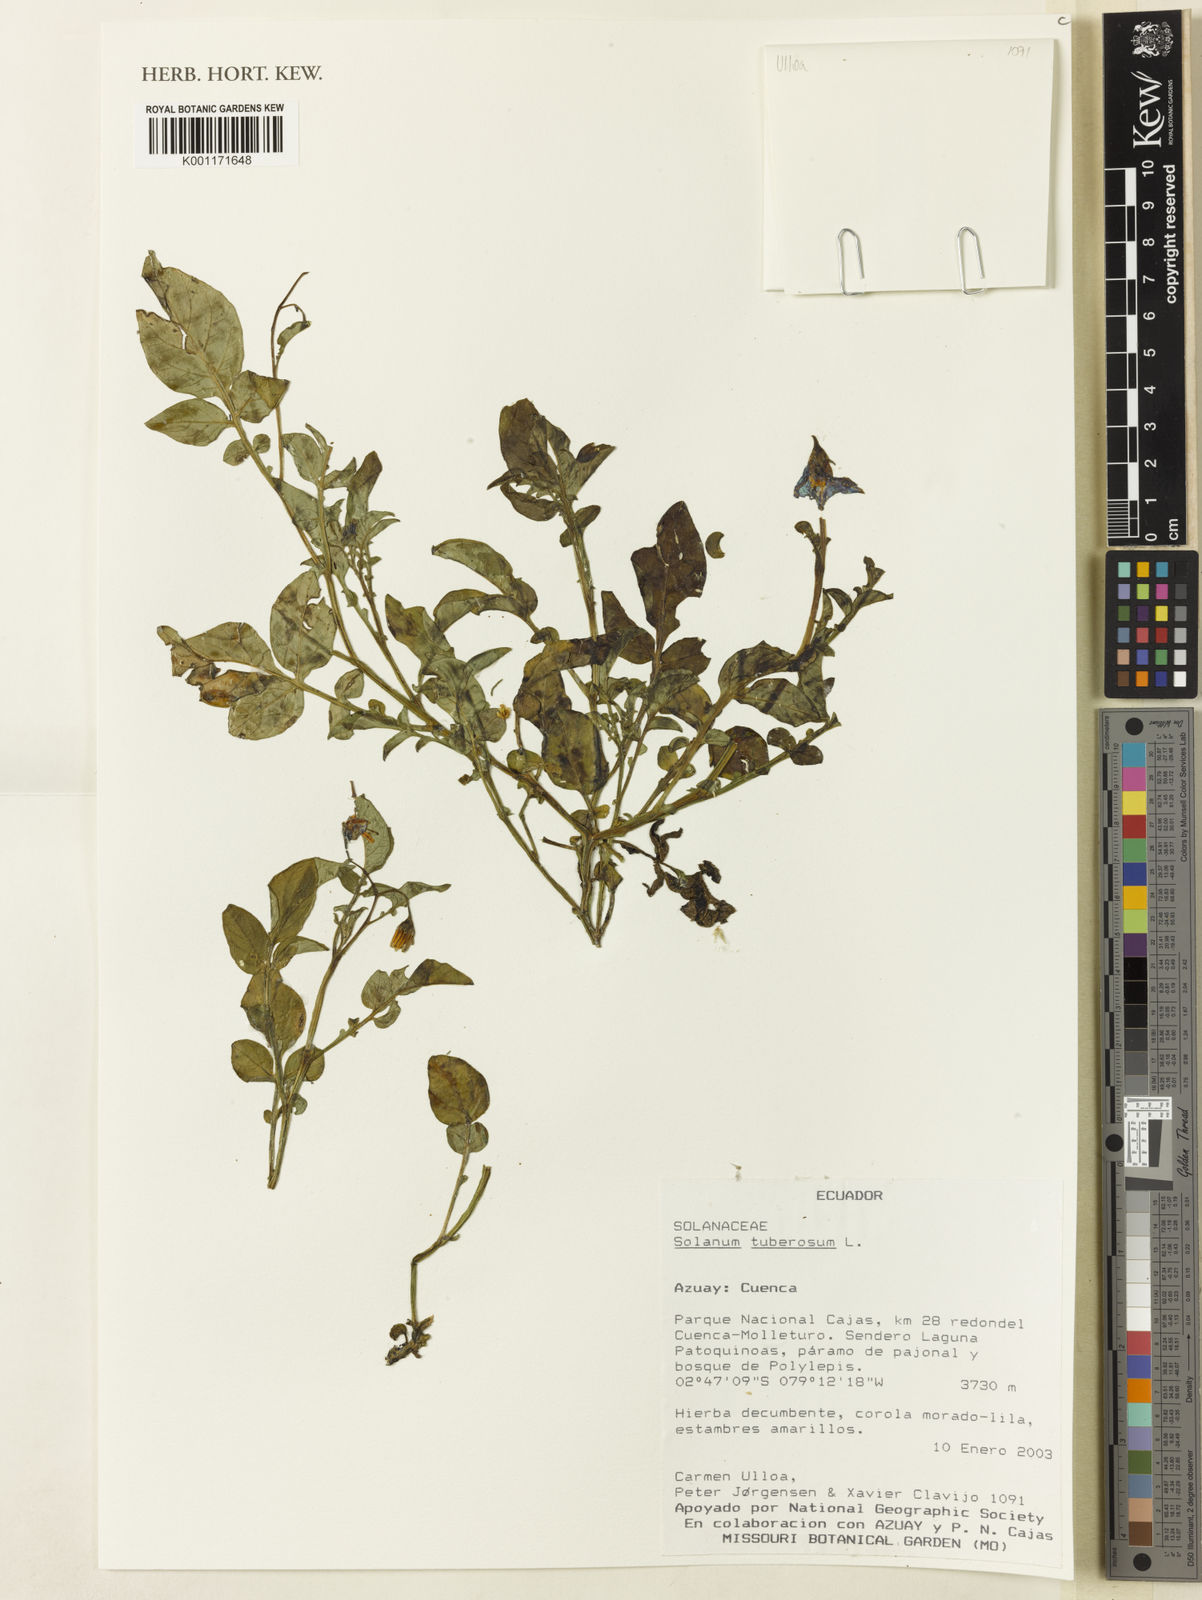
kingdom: Plantae
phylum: Tracheophyta
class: Magnoliopsida
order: Solanales
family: Solanaceae
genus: Solanum
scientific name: Solanum tuberosum
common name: Potato
